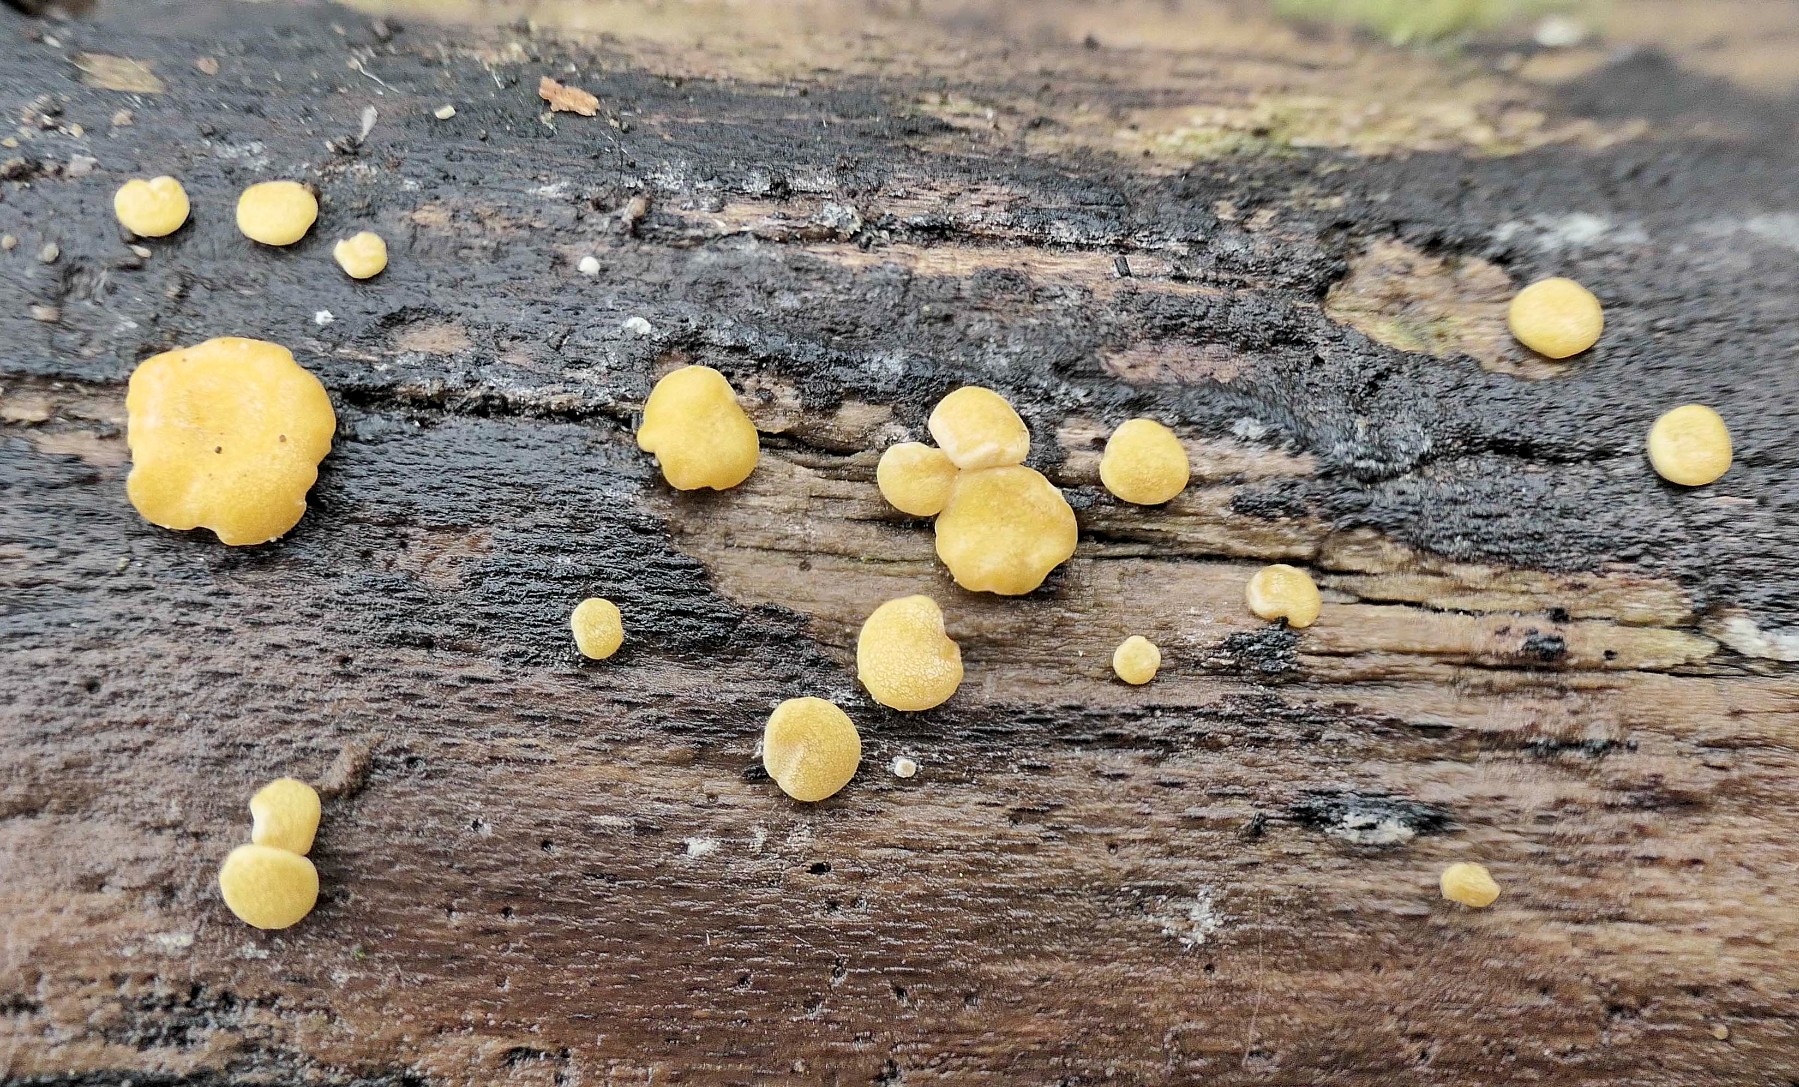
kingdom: Fungi
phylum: Ascomycota
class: Sordariomycetes
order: Hypocreales
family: Hypocreaceae
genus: Trichoderma
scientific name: Trichoderma aureoviride
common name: æggegul kødkerne
